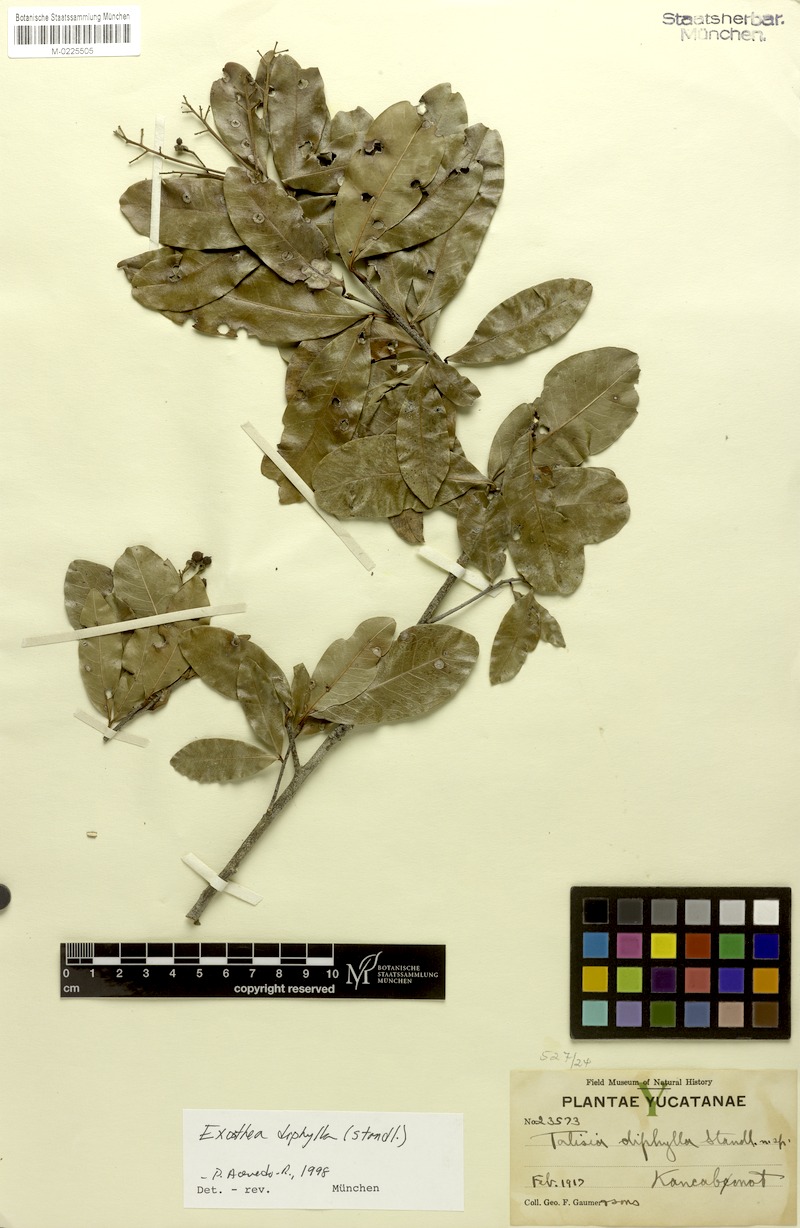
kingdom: Plantae
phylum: Tracheophyta
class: Magnoliopsida
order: Sapindales
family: Sapindaceae
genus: Exothea
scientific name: Exothea diphylla
